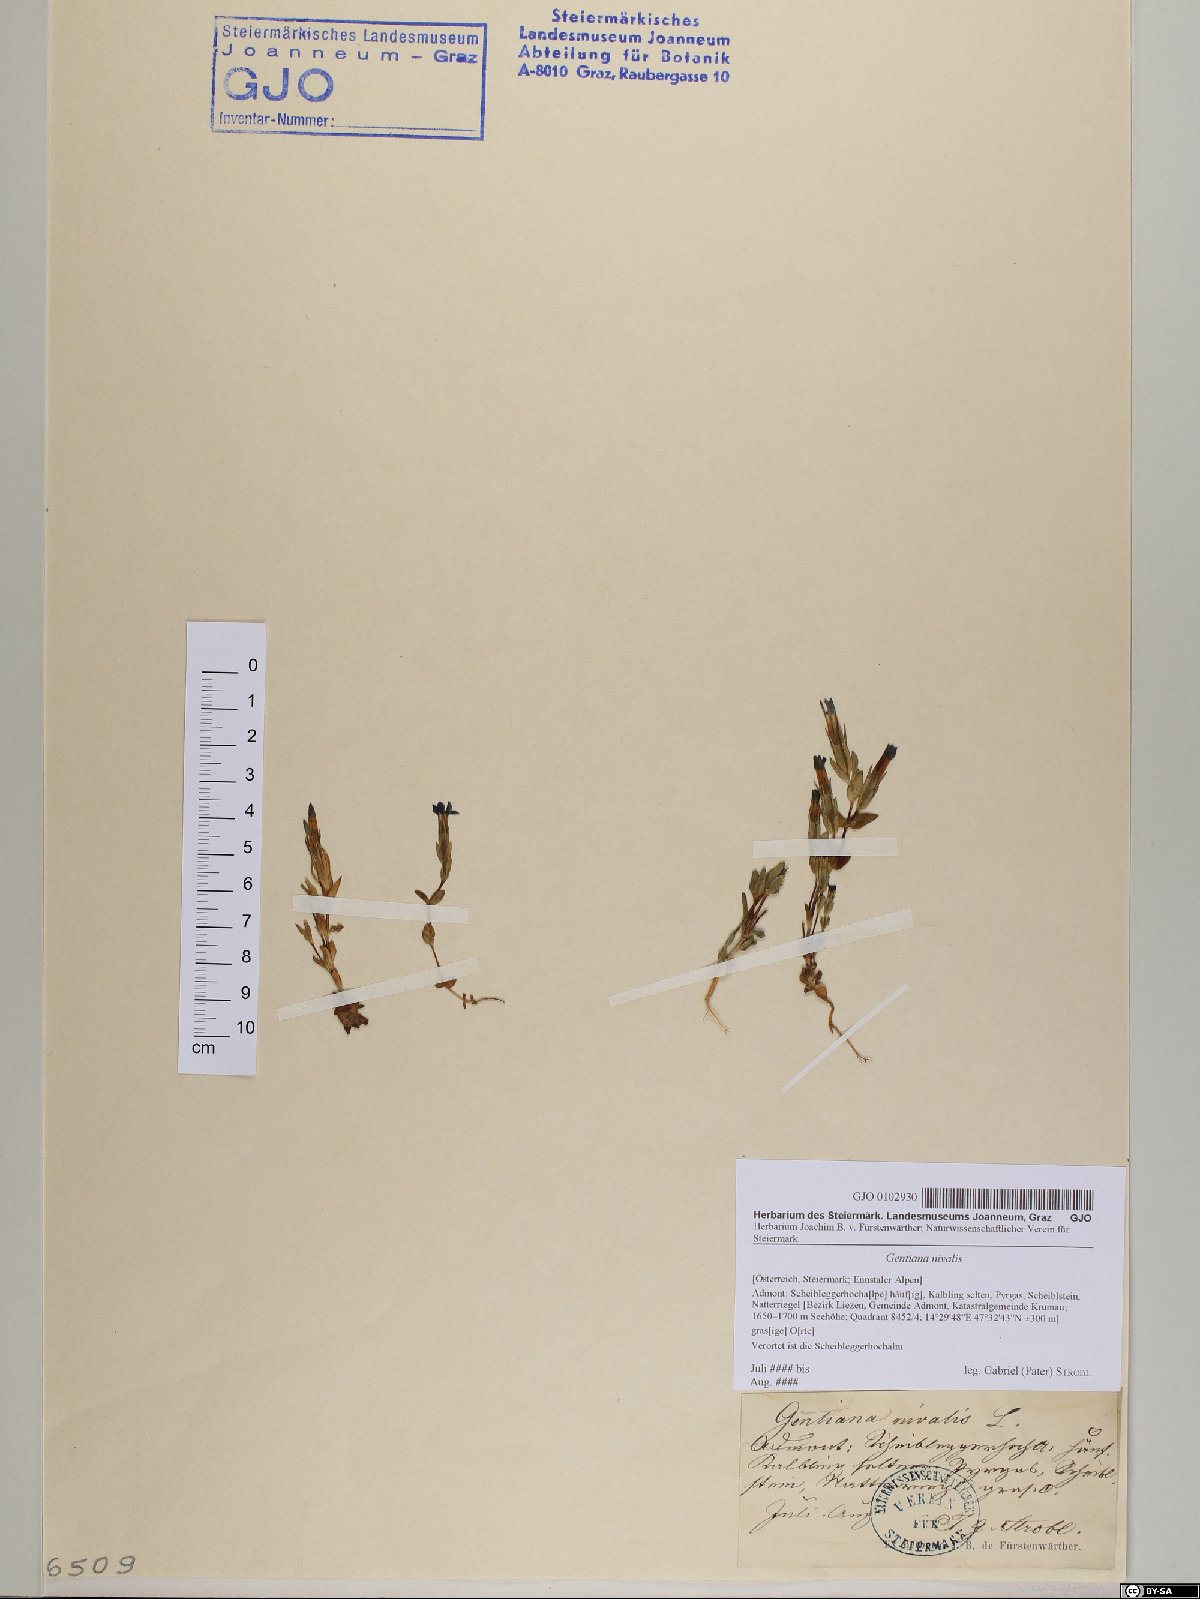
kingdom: Plantae
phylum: Tracheophyta
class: Magnoliopsida
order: Gentianales
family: Gentianaceae
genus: Gentiana
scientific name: Gentiana nivalis
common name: Alpine gentian
